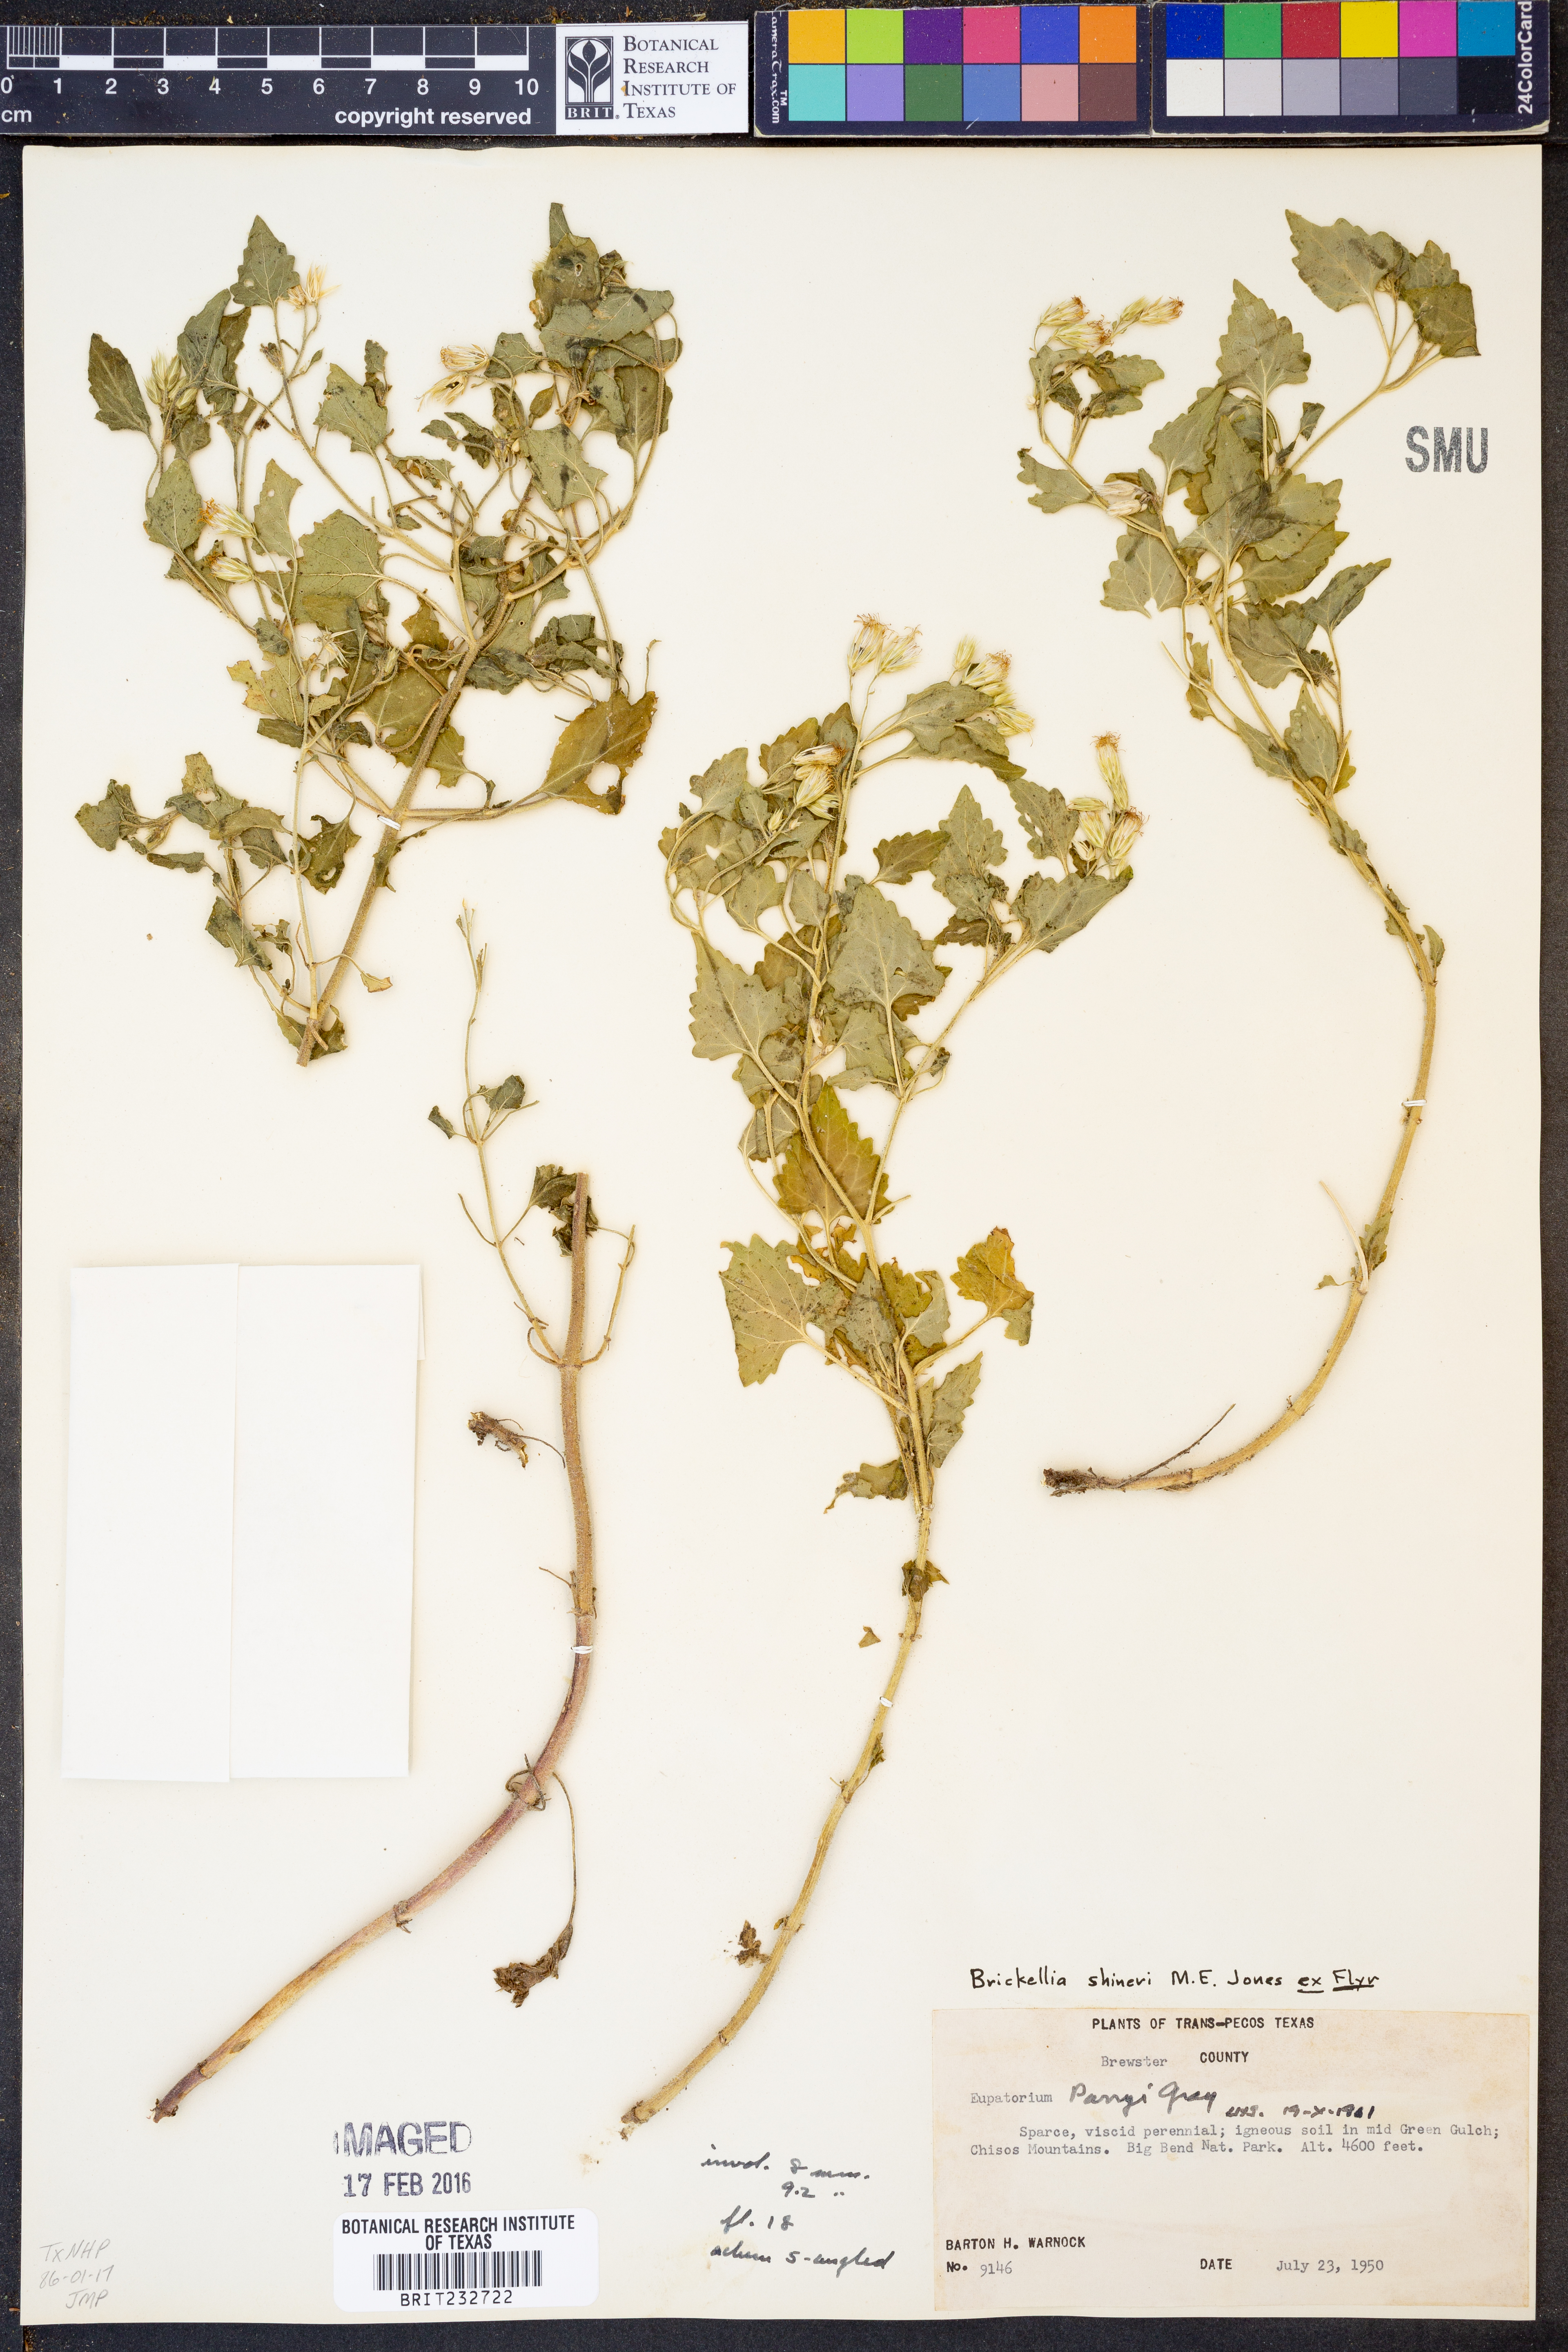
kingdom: Plantae
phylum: Tracheophyta
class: Magnoliopsida
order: Asterales
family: Asteraceae
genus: Flyriella
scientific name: Flyriella parryi
